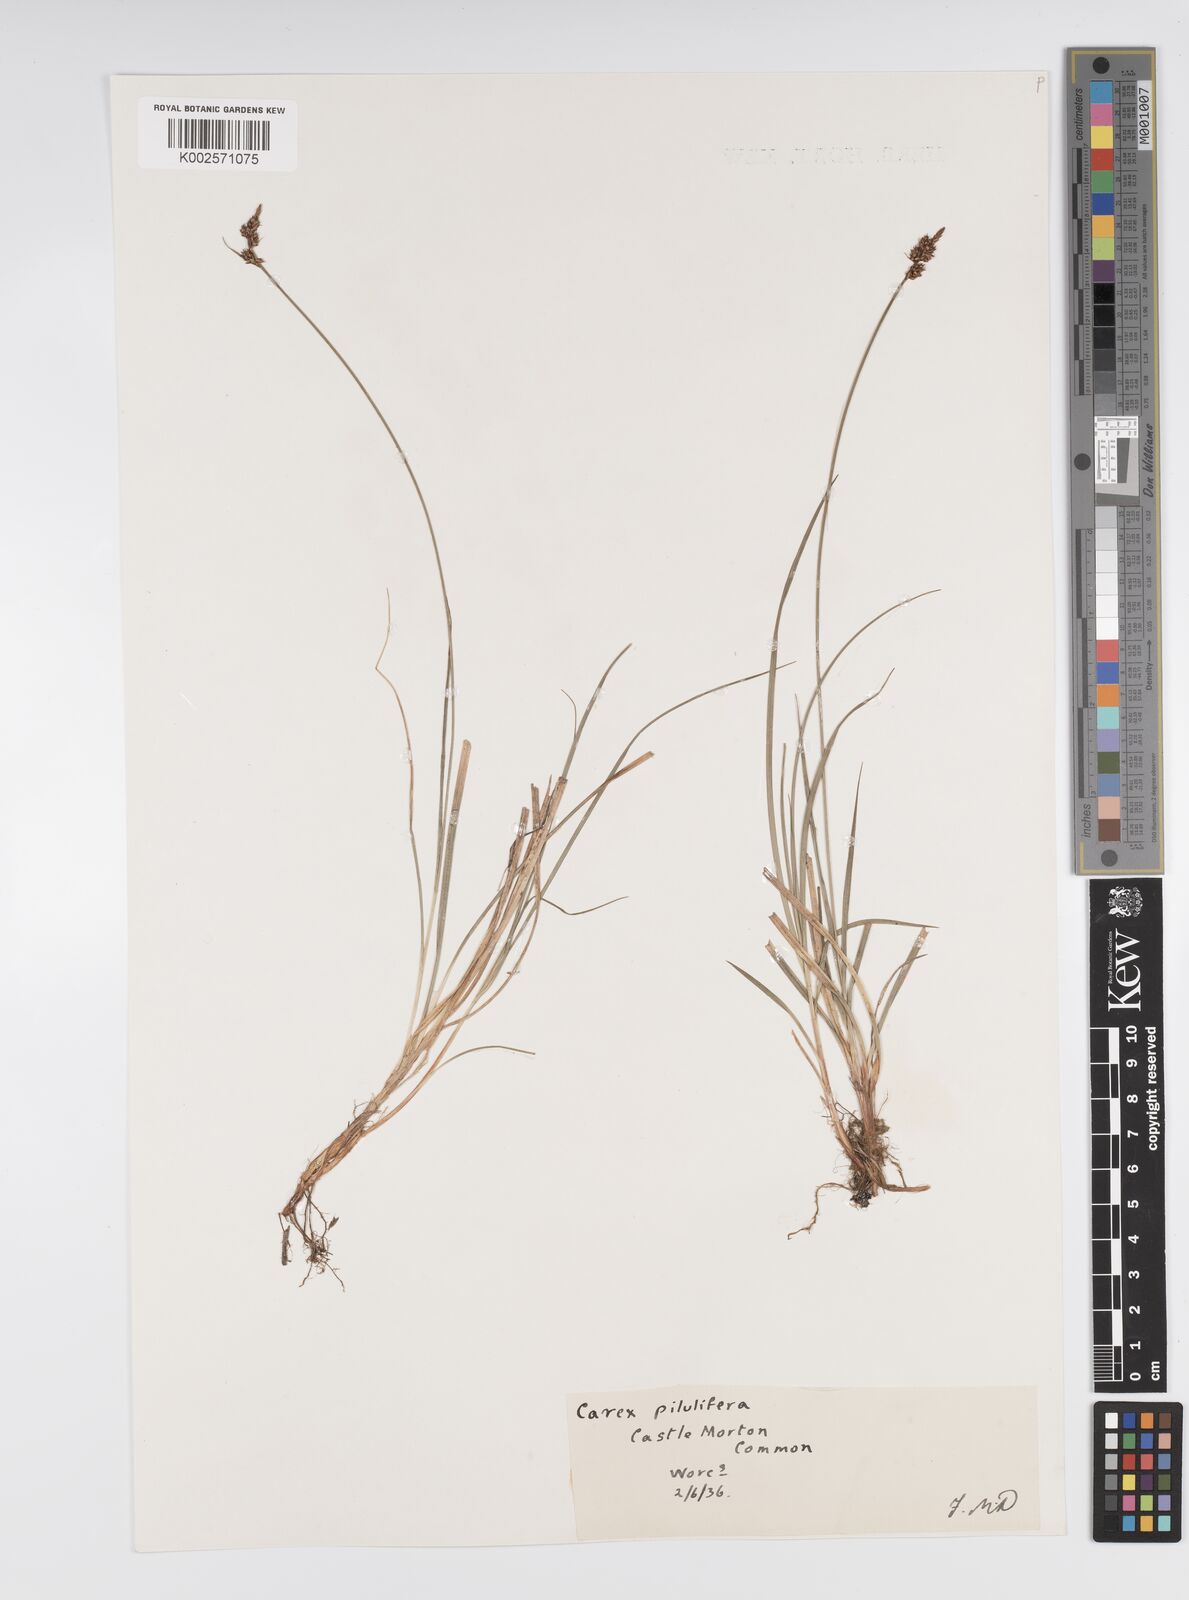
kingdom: Plantae
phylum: Tracheophyta
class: Liliopsida
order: Poales
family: Cyperaceae
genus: Carex
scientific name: Carex pilulifera
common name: Pill sedge
